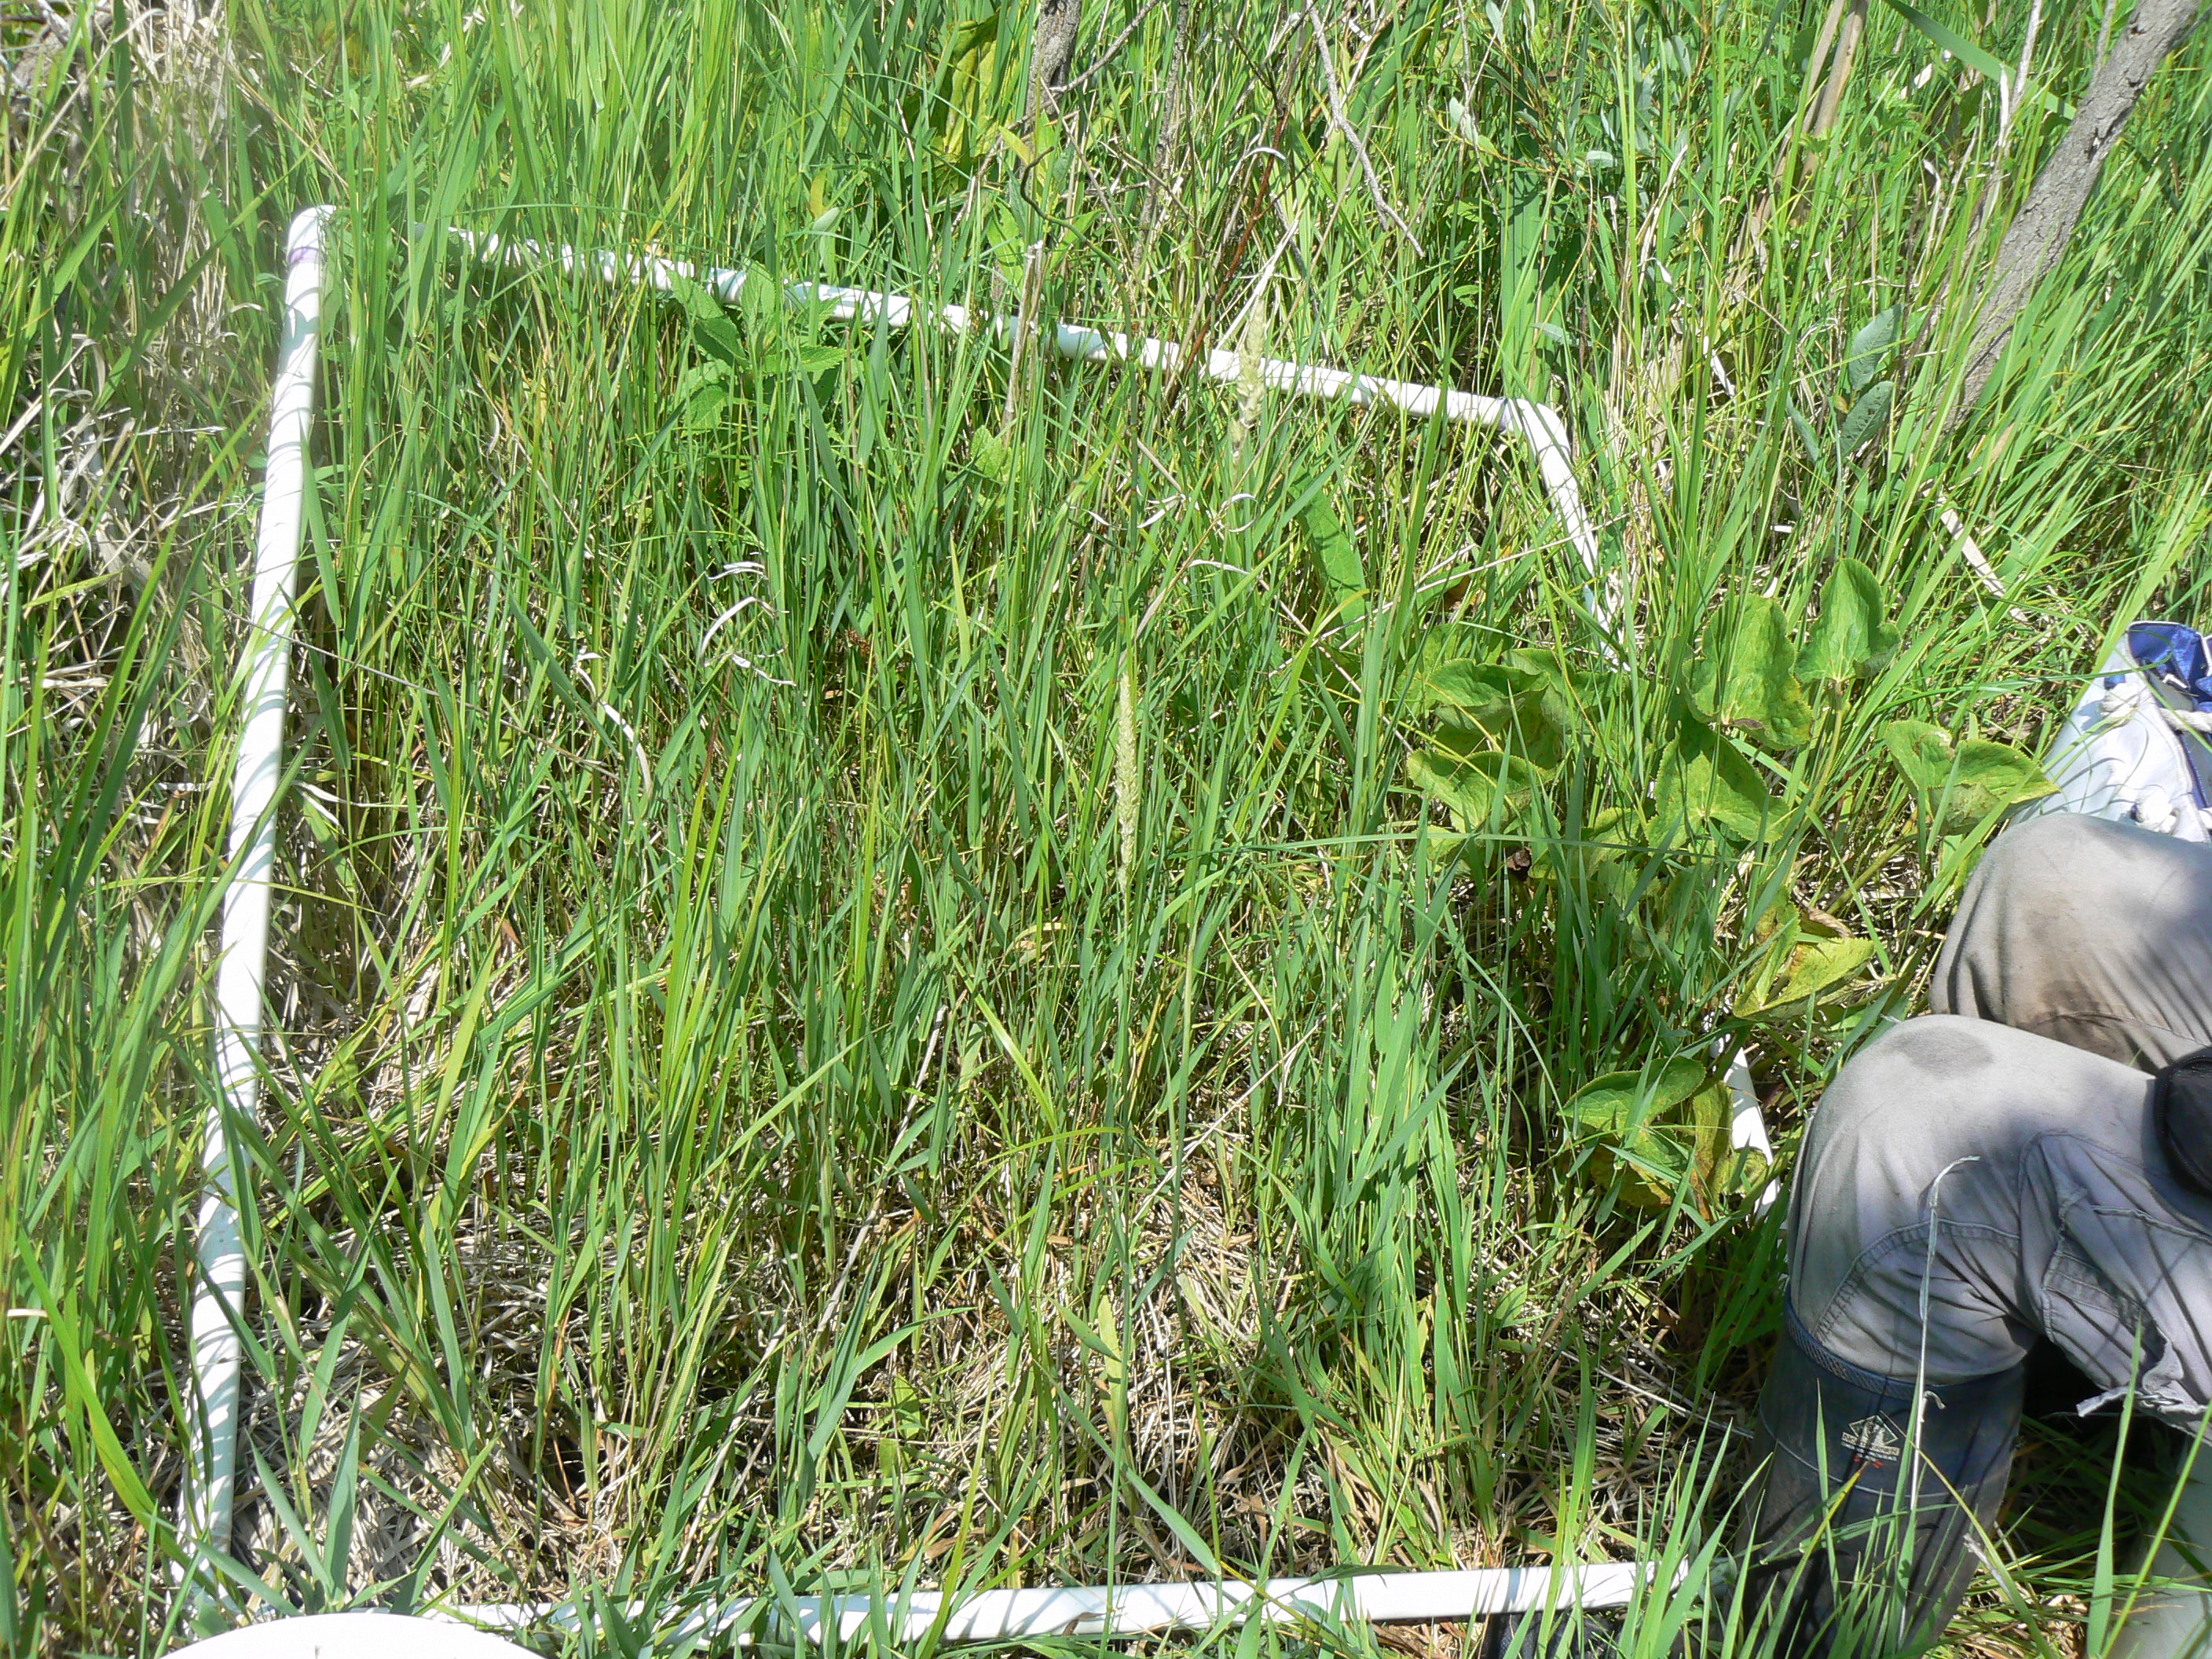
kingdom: Plantae
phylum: Tracheophyta
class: Liliopsida
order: Poales
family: Poaceae
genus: Phalaris
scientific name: Phalaris arundinacea
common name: Reed canary-grass
